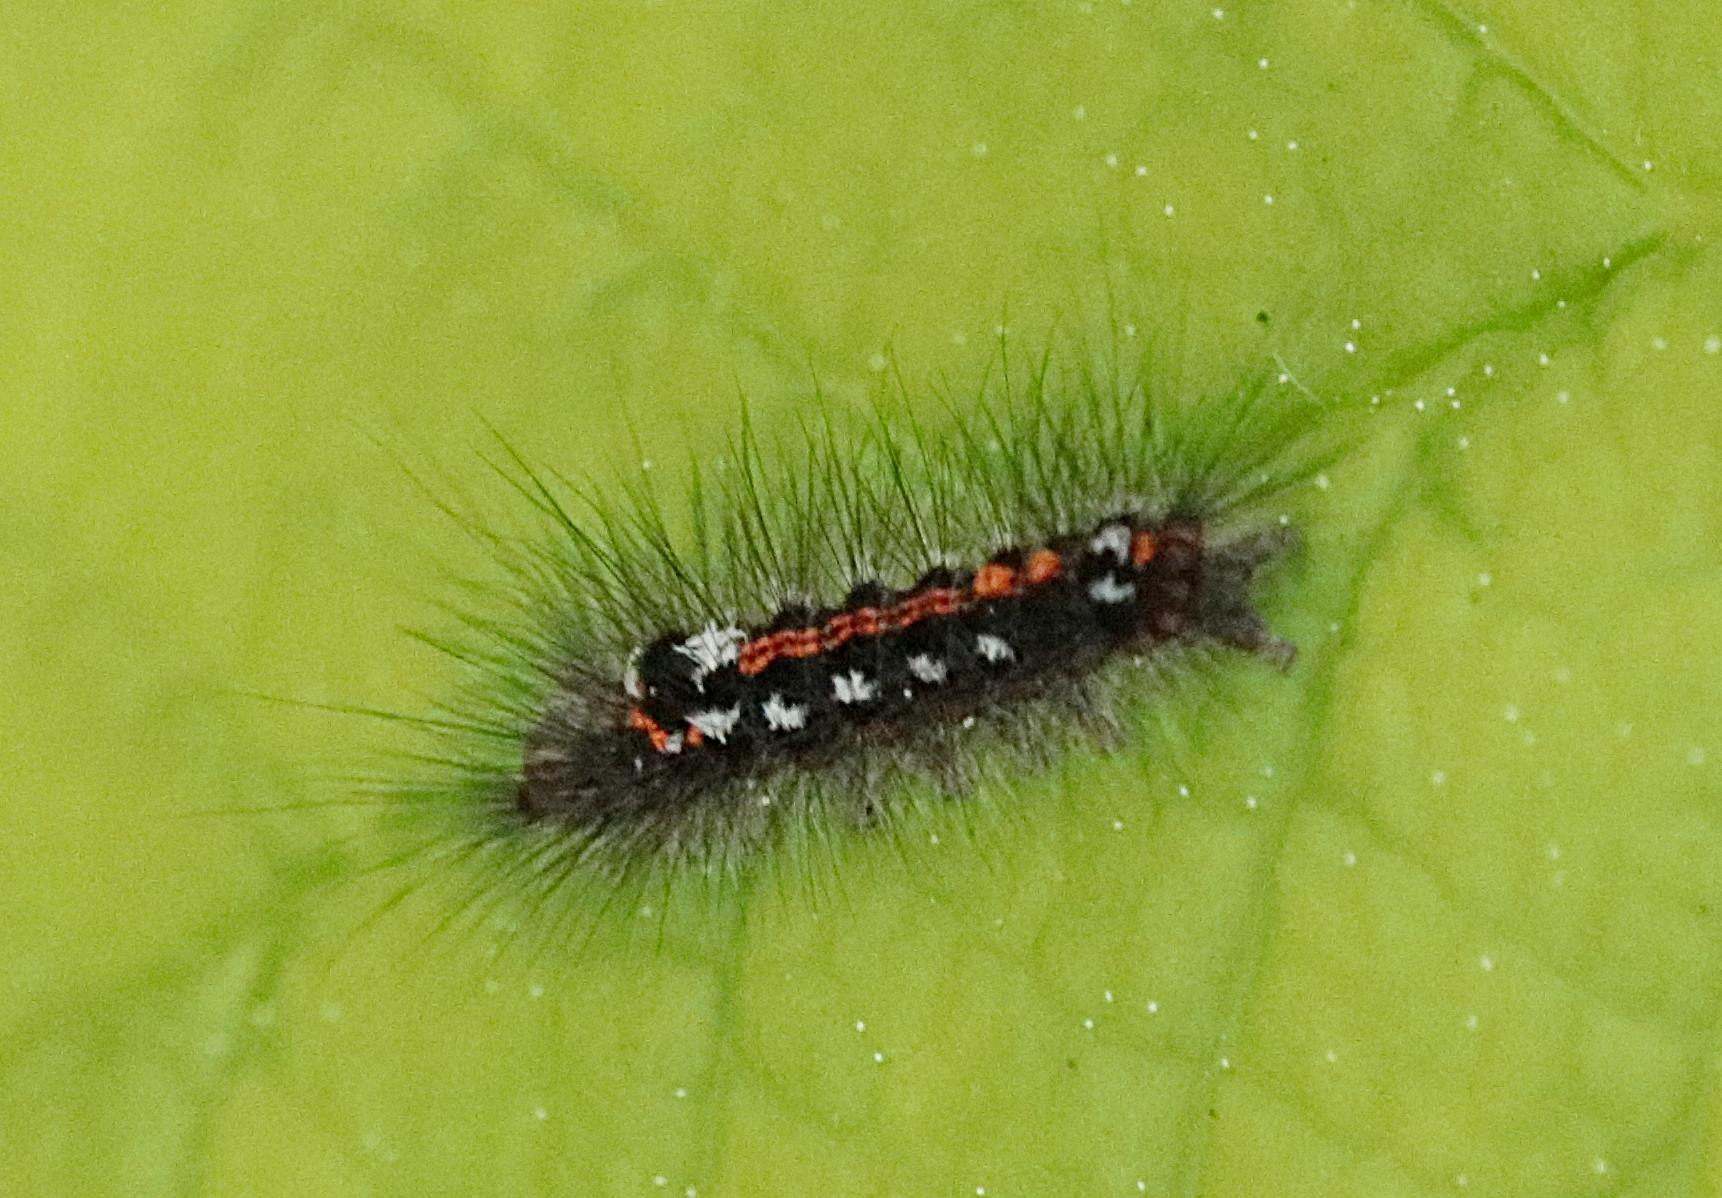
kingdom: Animalia
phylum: Arthropoda
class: Insecta
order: Lepidoptera
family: Erebidae
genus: Sphrageidus
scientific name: Sphrageidus similis
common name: Gulhale
